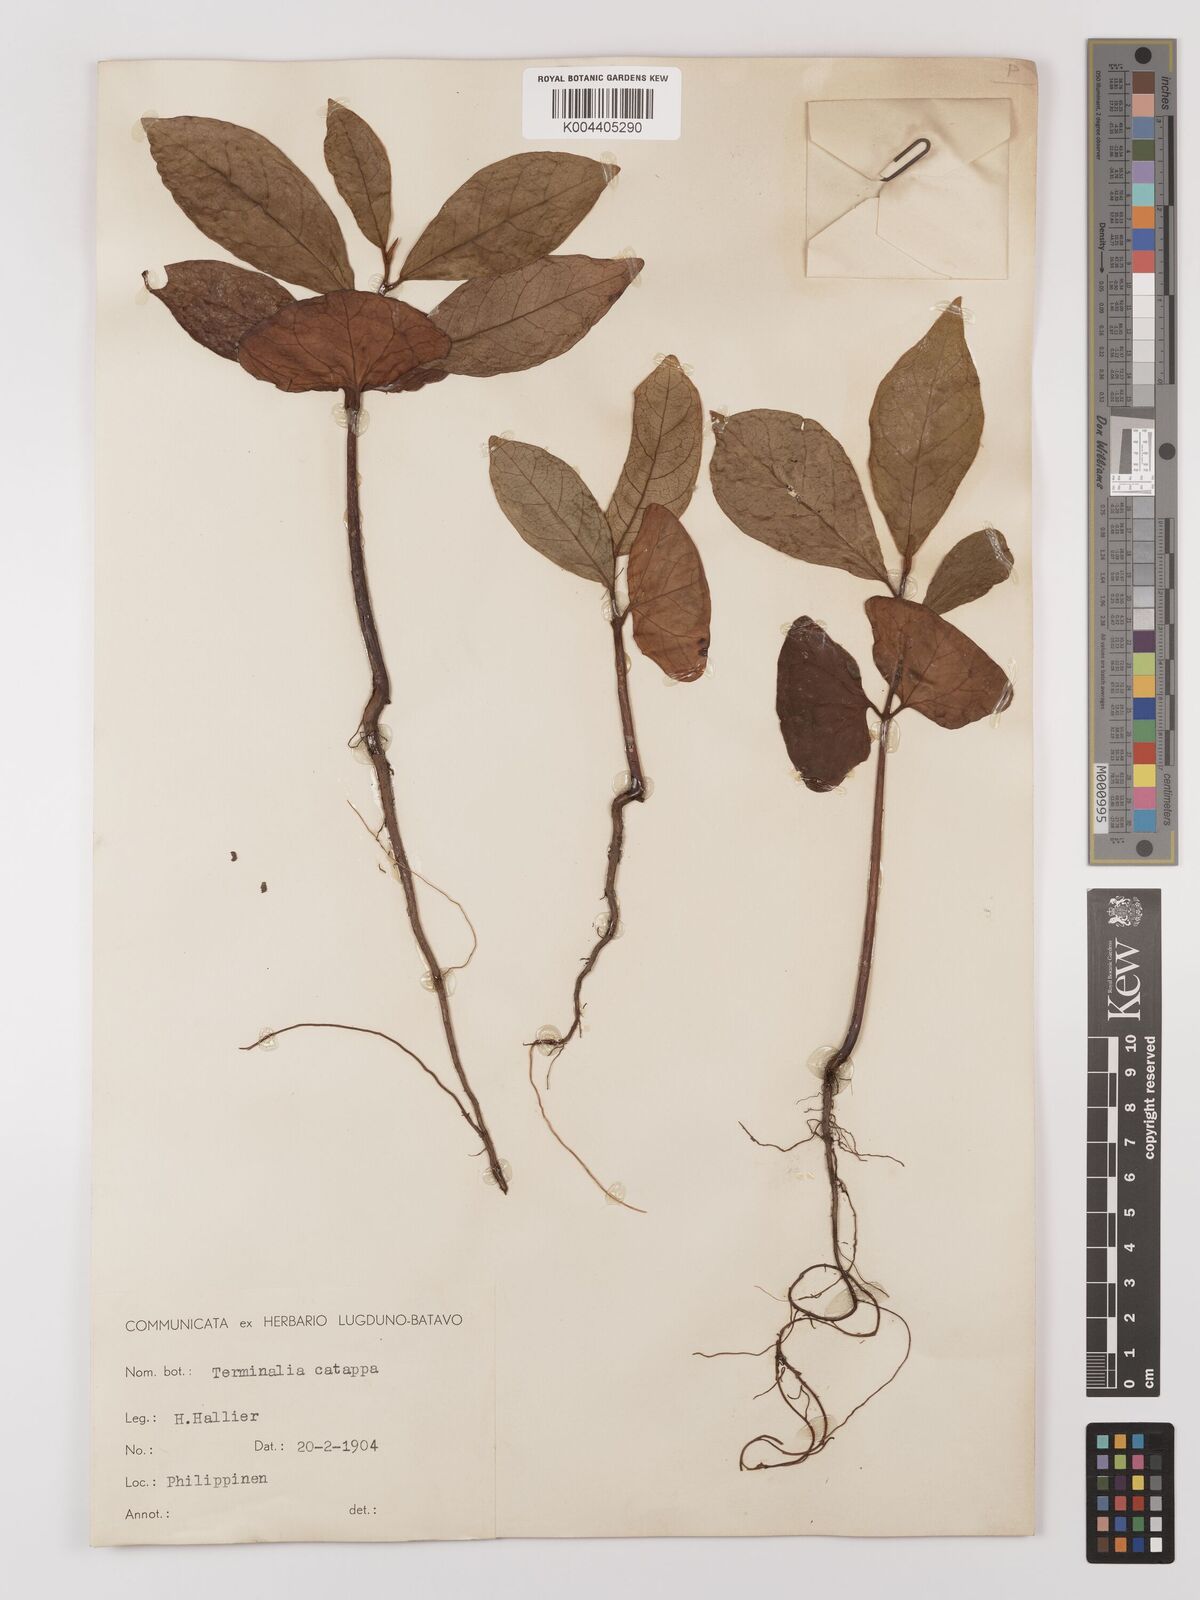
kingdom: Plantae
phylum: Tracheophyta
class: Magnoliopsida
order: Myrtales
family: Combretaceae
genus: Terminalia
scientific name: Terminalia catappa
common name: Tropical almond
